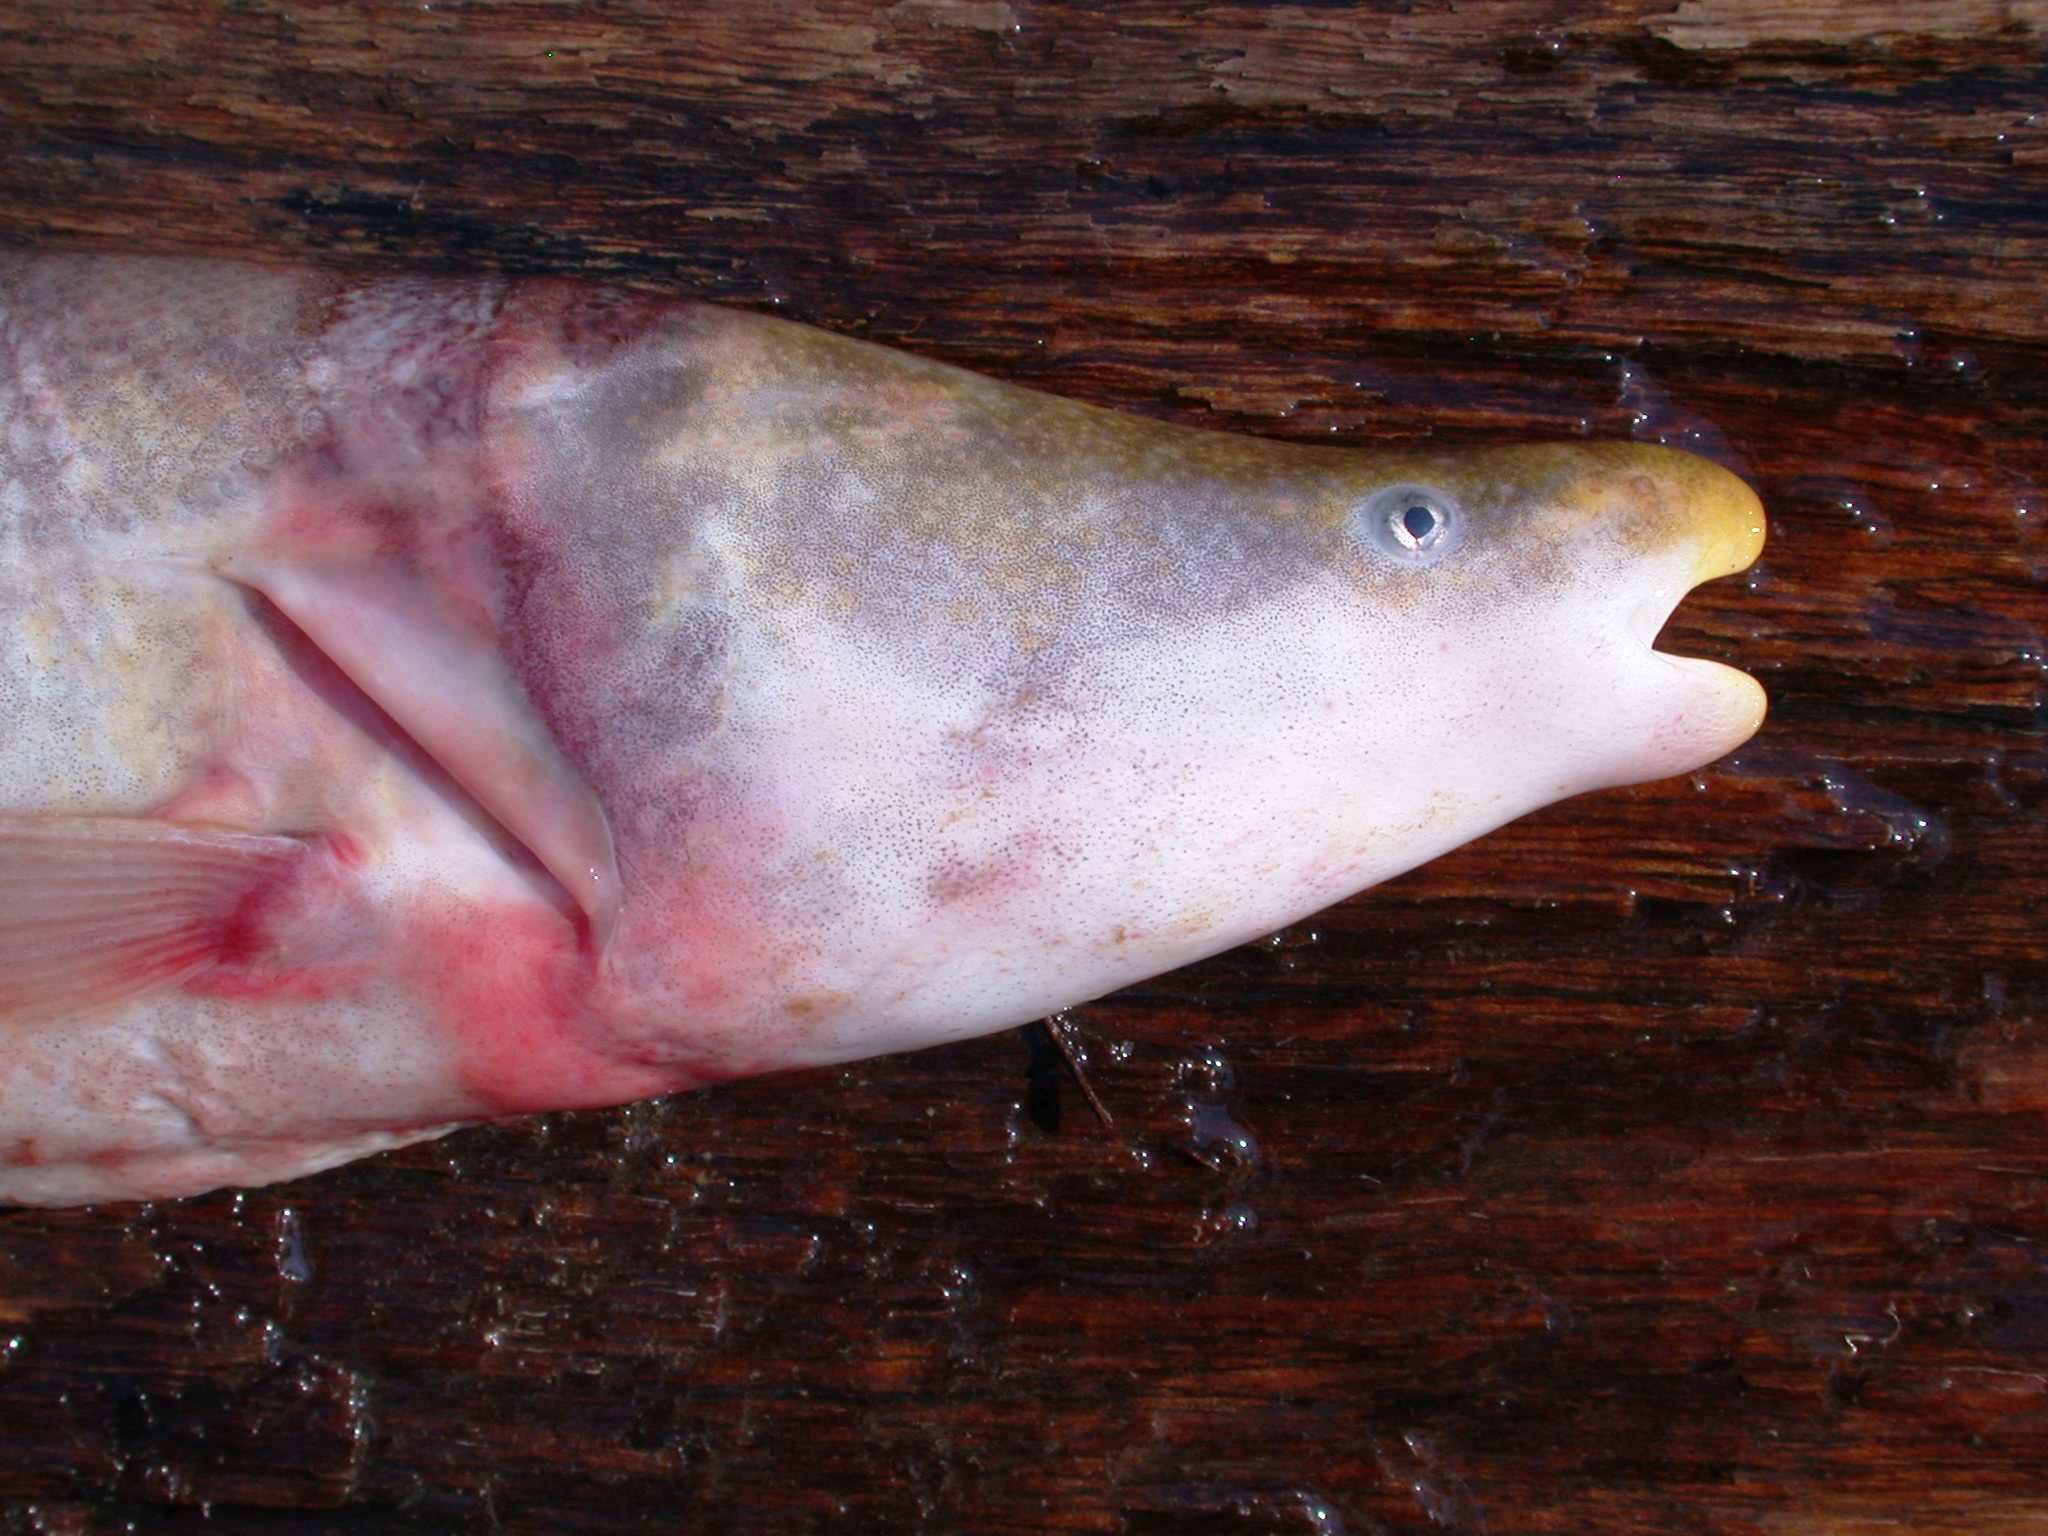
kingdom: Animalia
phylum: Chordata
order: Osteoglossiformes
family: Mormyridae
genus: Mormyrops
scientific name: Mormyrops anguilloides
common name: Cornish jack
